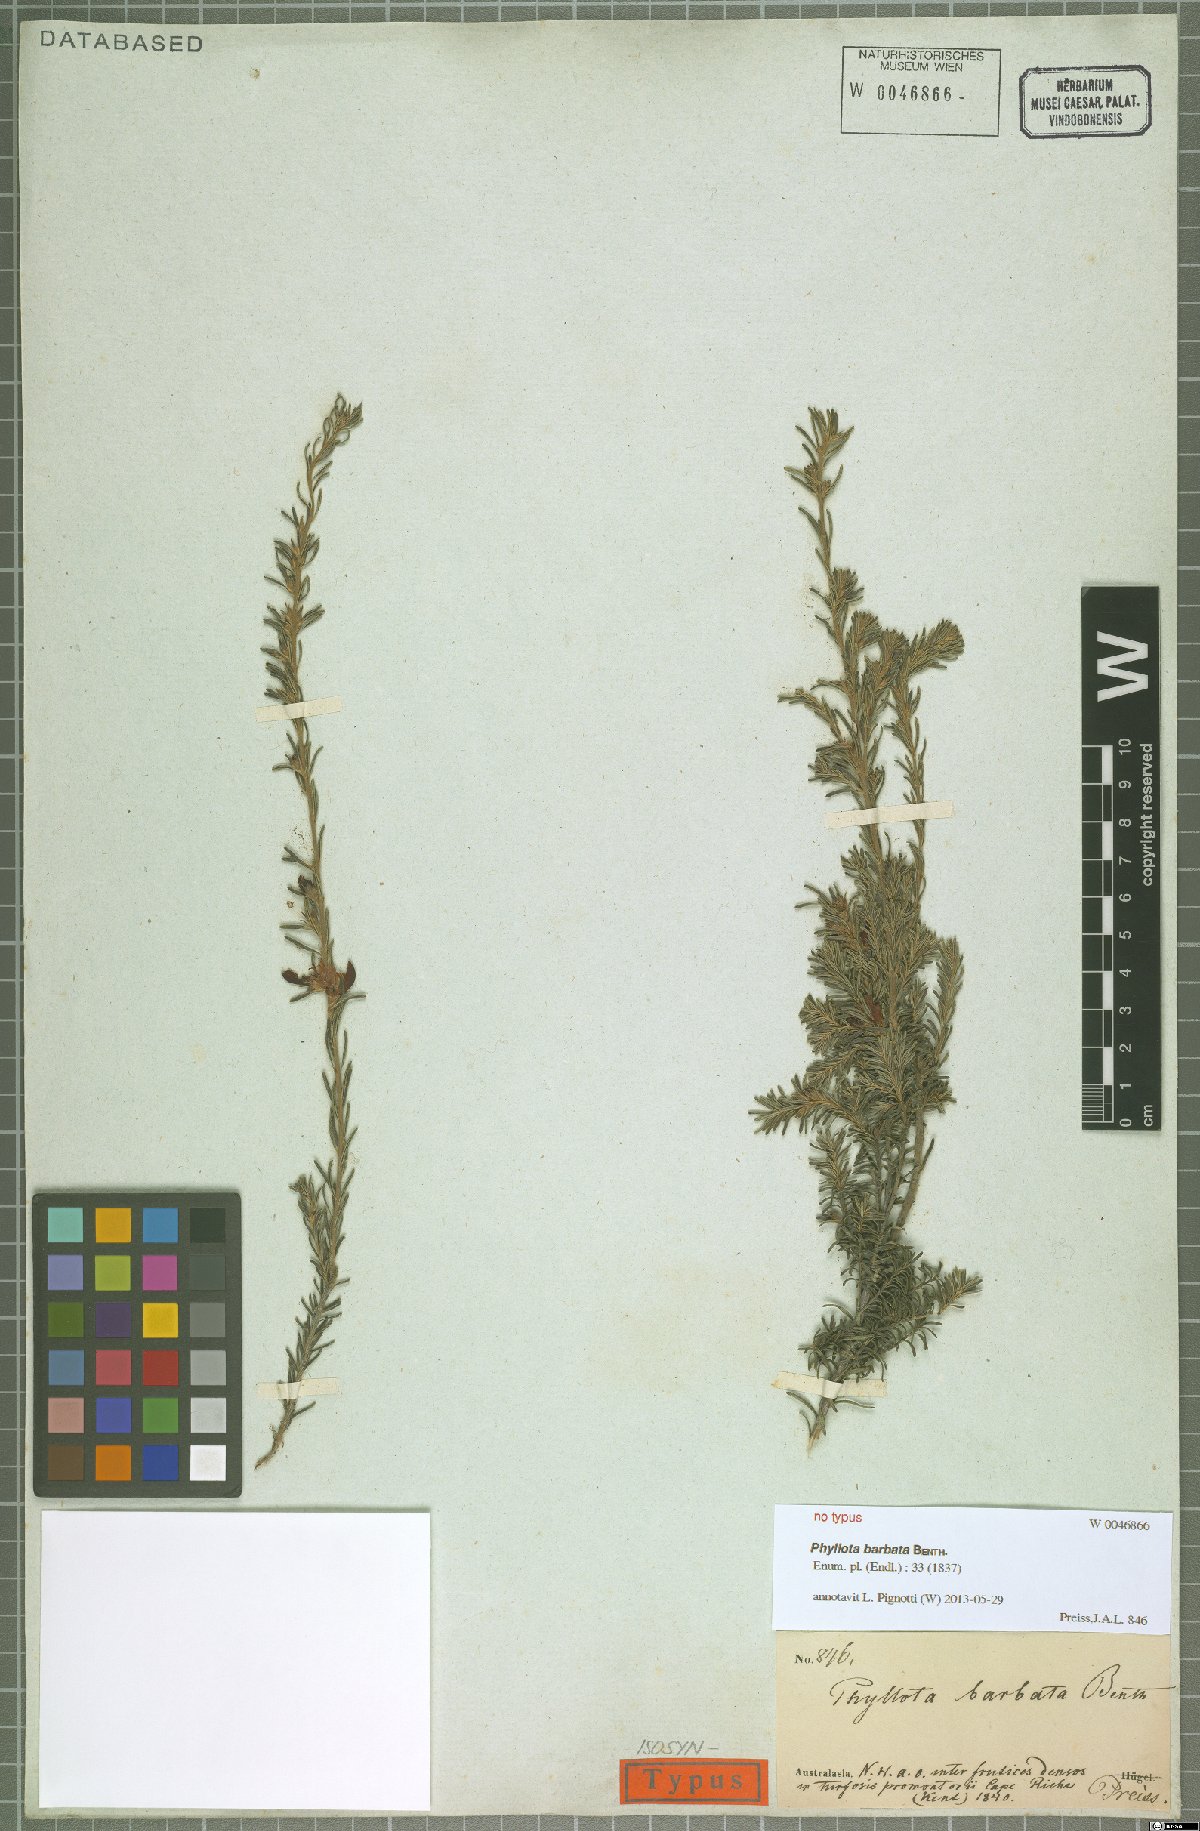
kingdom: Plantae
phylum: Tracheophyta
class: Magnoliopsida
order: Fabales
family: Fabaceae
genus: Phyllota
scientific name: Phyllota barbata
